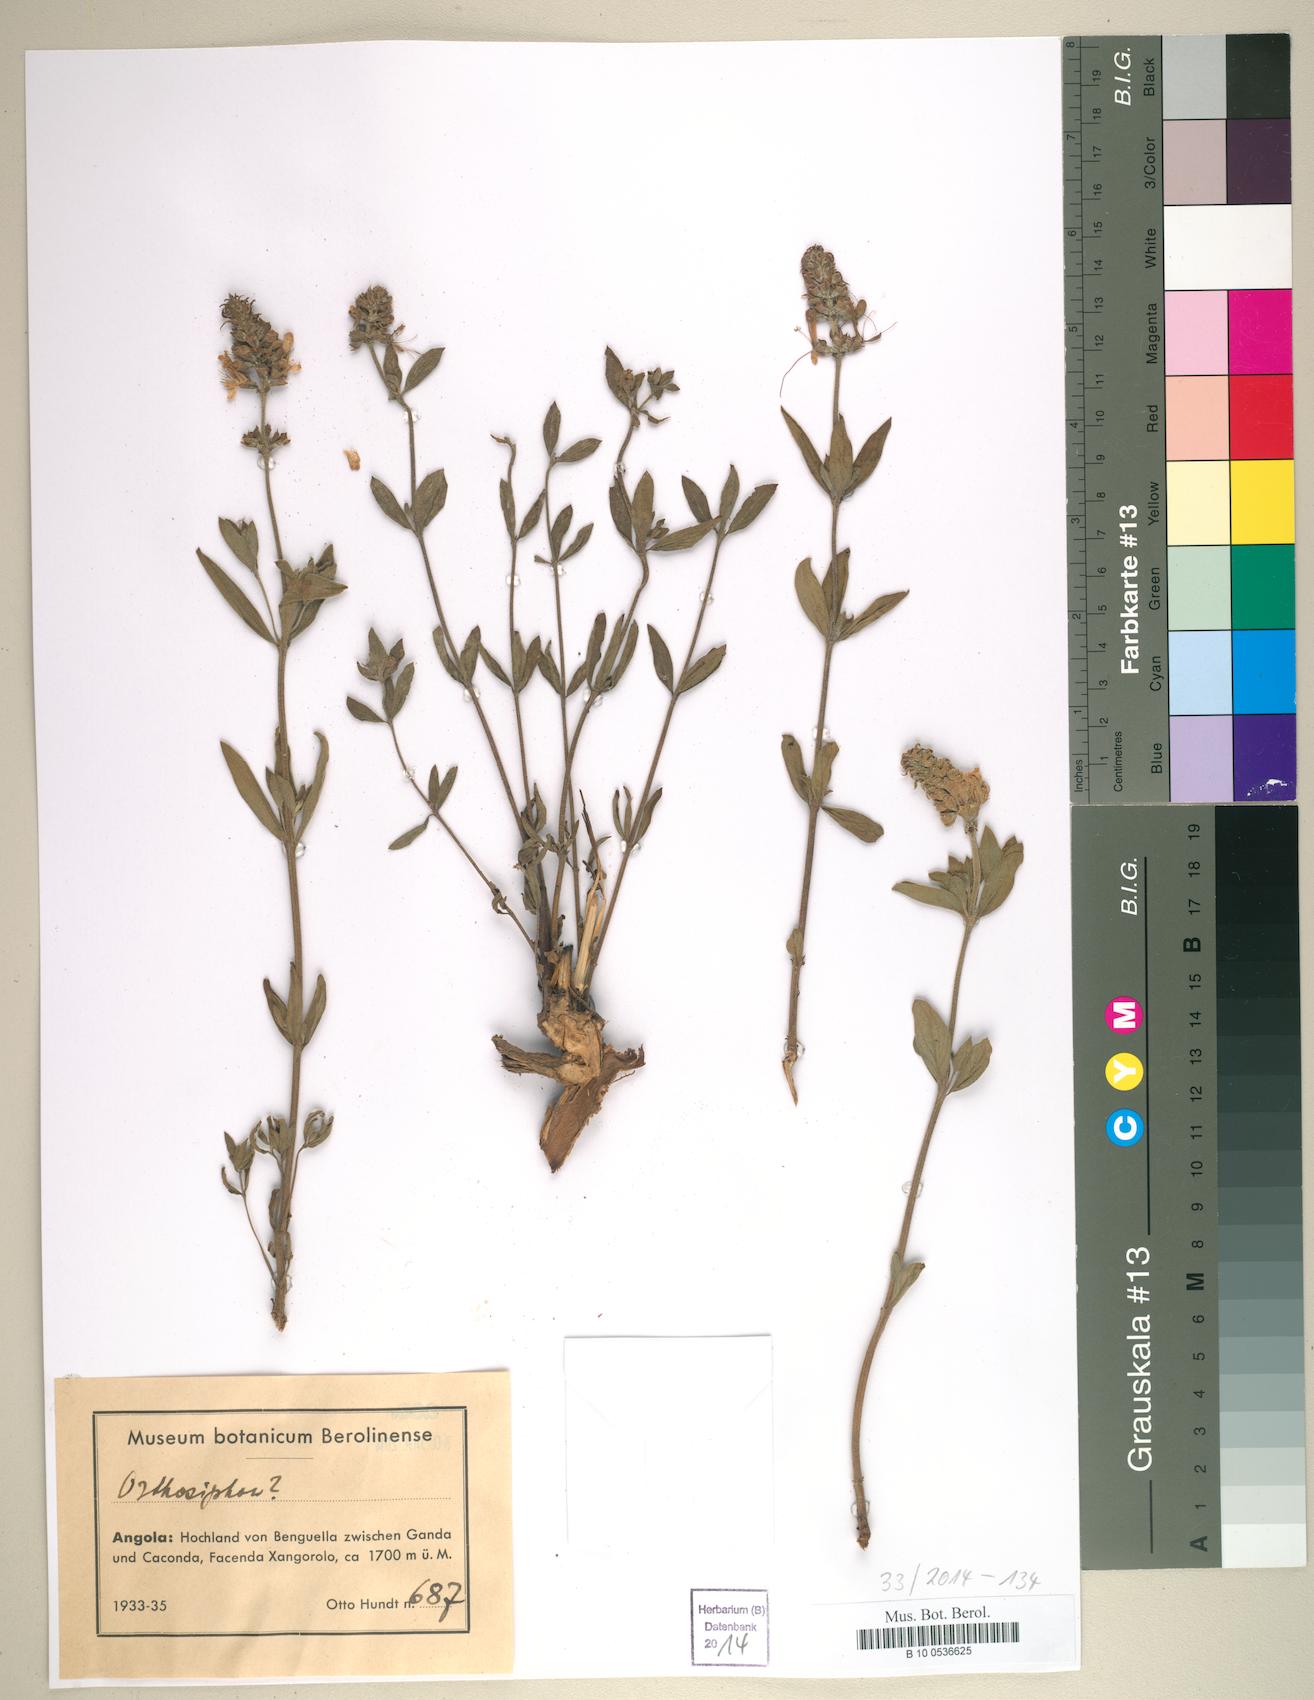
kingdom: Plantae
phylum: Tracheophyta
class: Magnoliopsida
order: Lamiales
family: Lamiaceae
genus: Orthosiphon
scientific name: Orthosiphon
